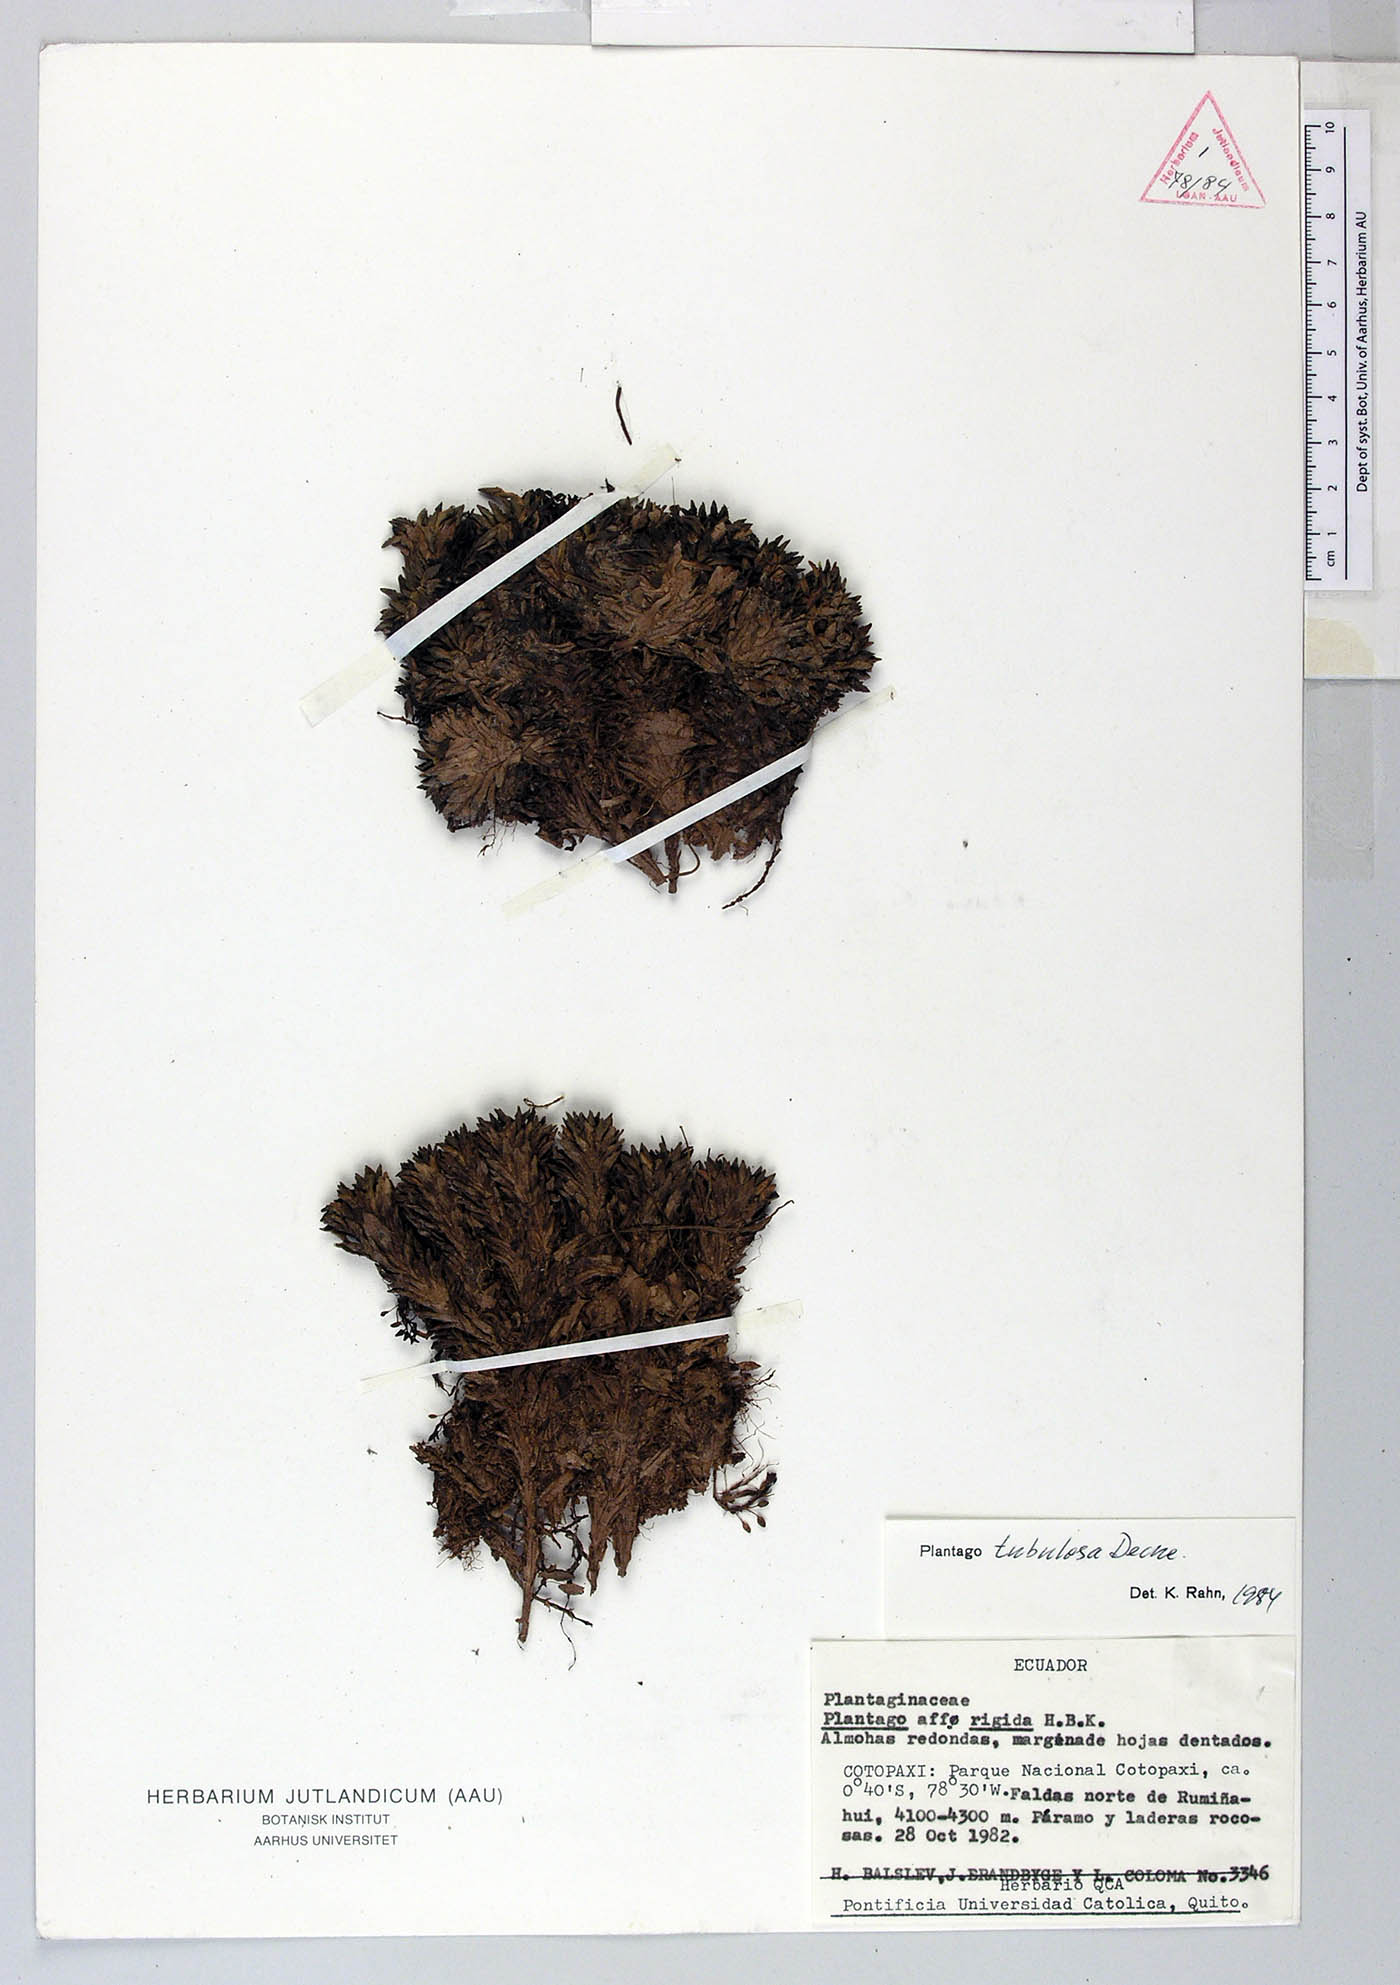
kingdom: Plantae
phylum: Tracheophyta
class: Magnoliopsida
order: Lamiales
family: Plantaginaceae
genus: Plantago
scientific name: Plantago rigida
